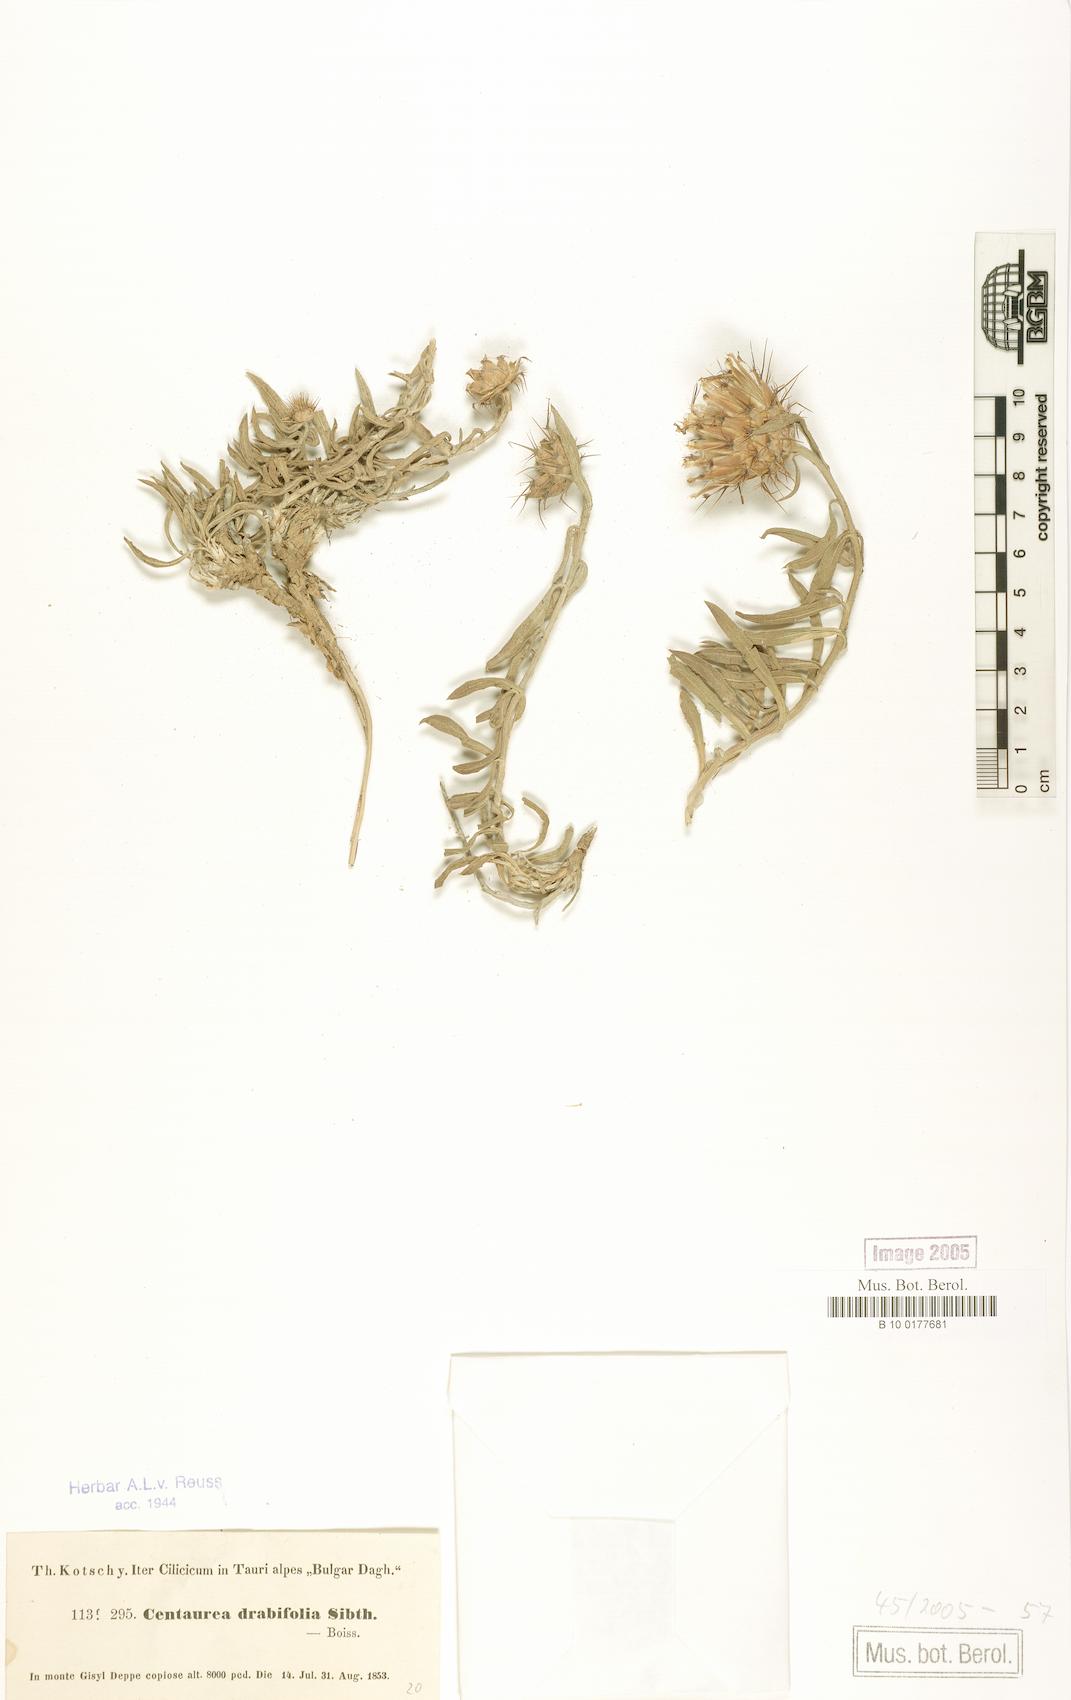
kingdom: Plantae
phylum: Tracheophyta
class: Magnoliopsida
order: Asterales
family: Asteraceae
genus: Centaurea
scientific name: Centaurea drabifolia
